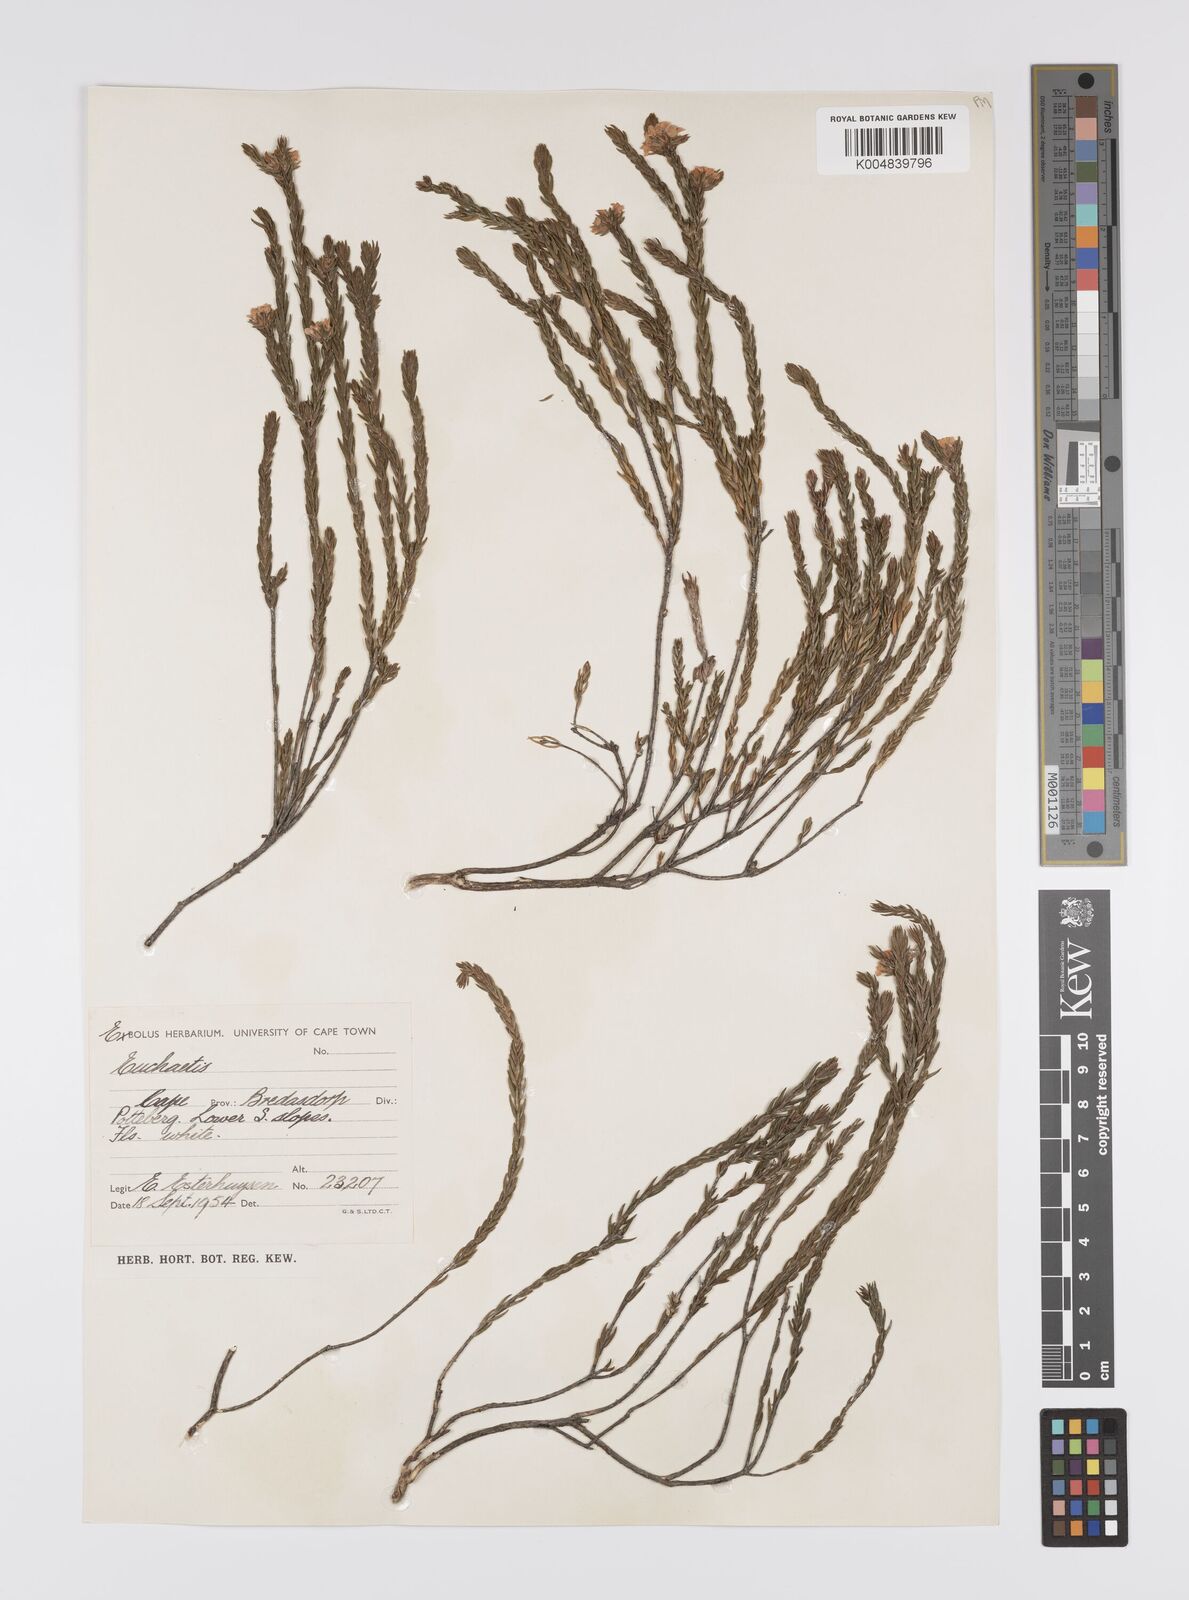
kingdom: Plantae
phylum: Tracheophyta
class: Magnoliopsida
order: Sapindales
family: Rutaceae
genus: Euchaetis
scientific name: Euchaetis
